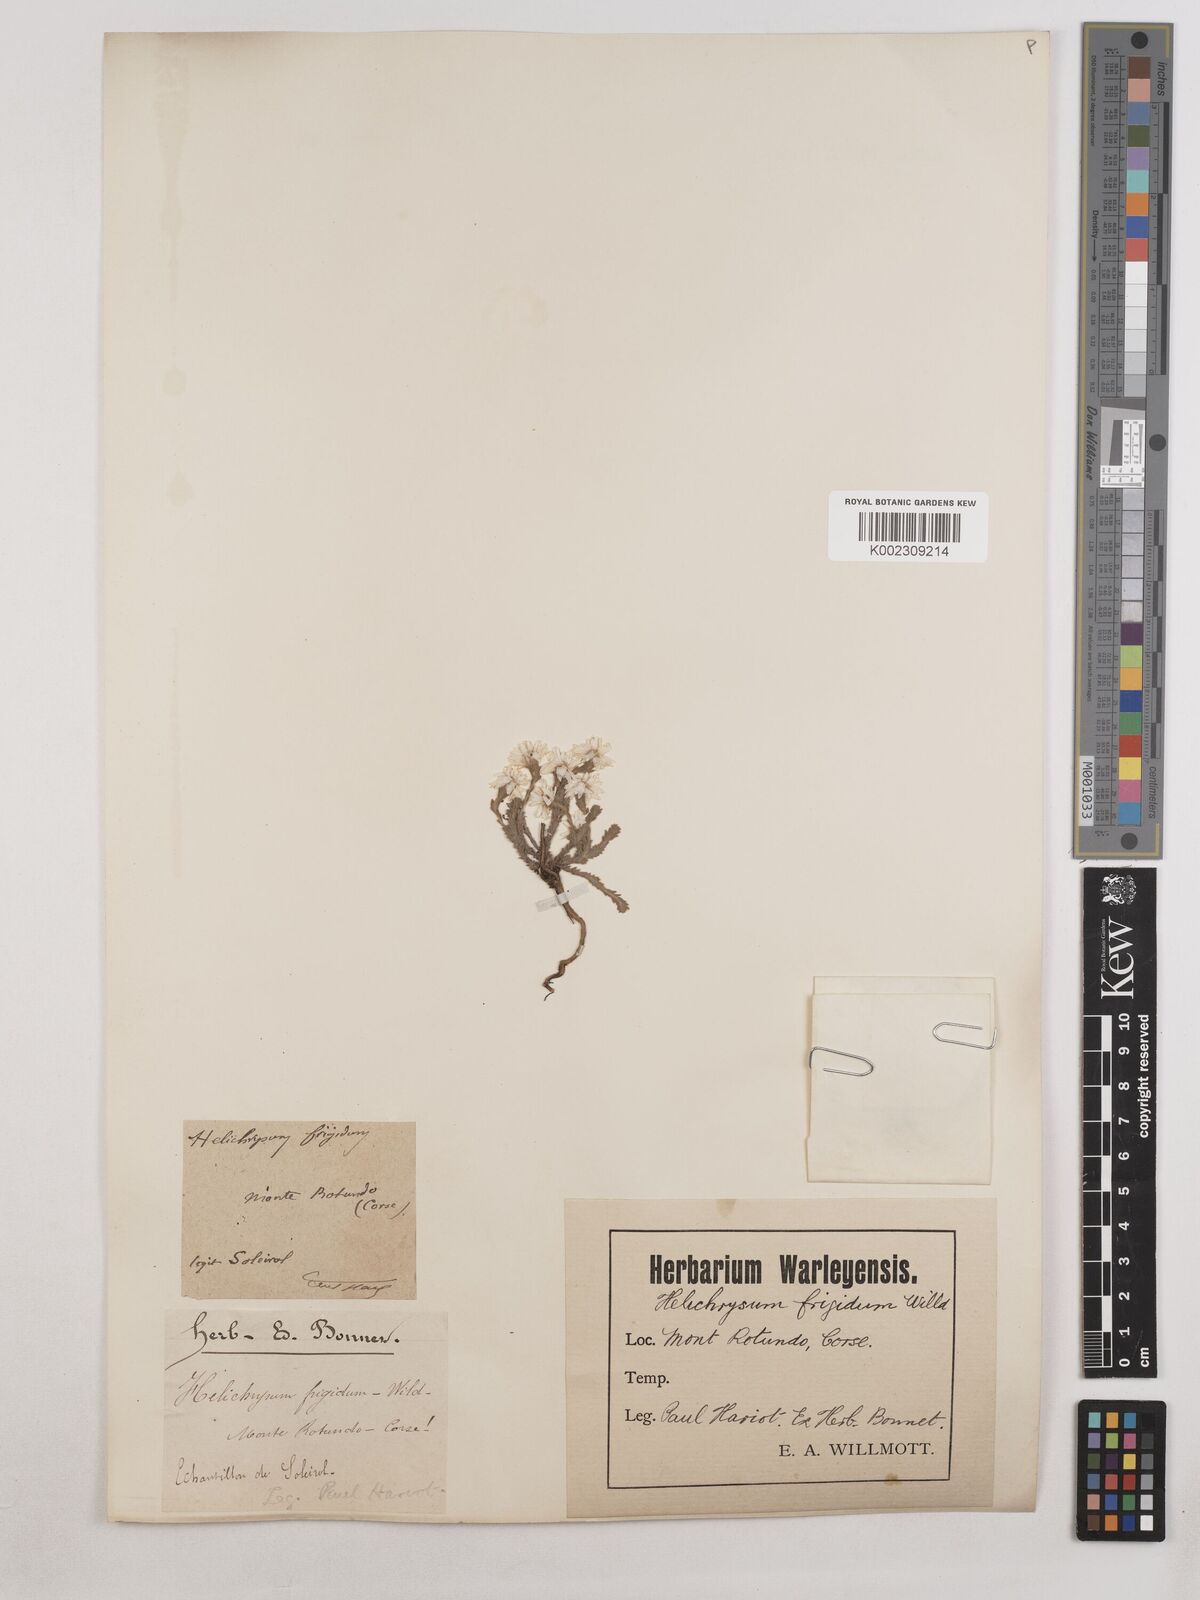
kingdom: Plantae
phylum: Tracheophyta
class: Magnoliopsida
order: Asterales
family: Asteraceae
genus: Castroviejoa
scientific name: Castroviejoa frigida
